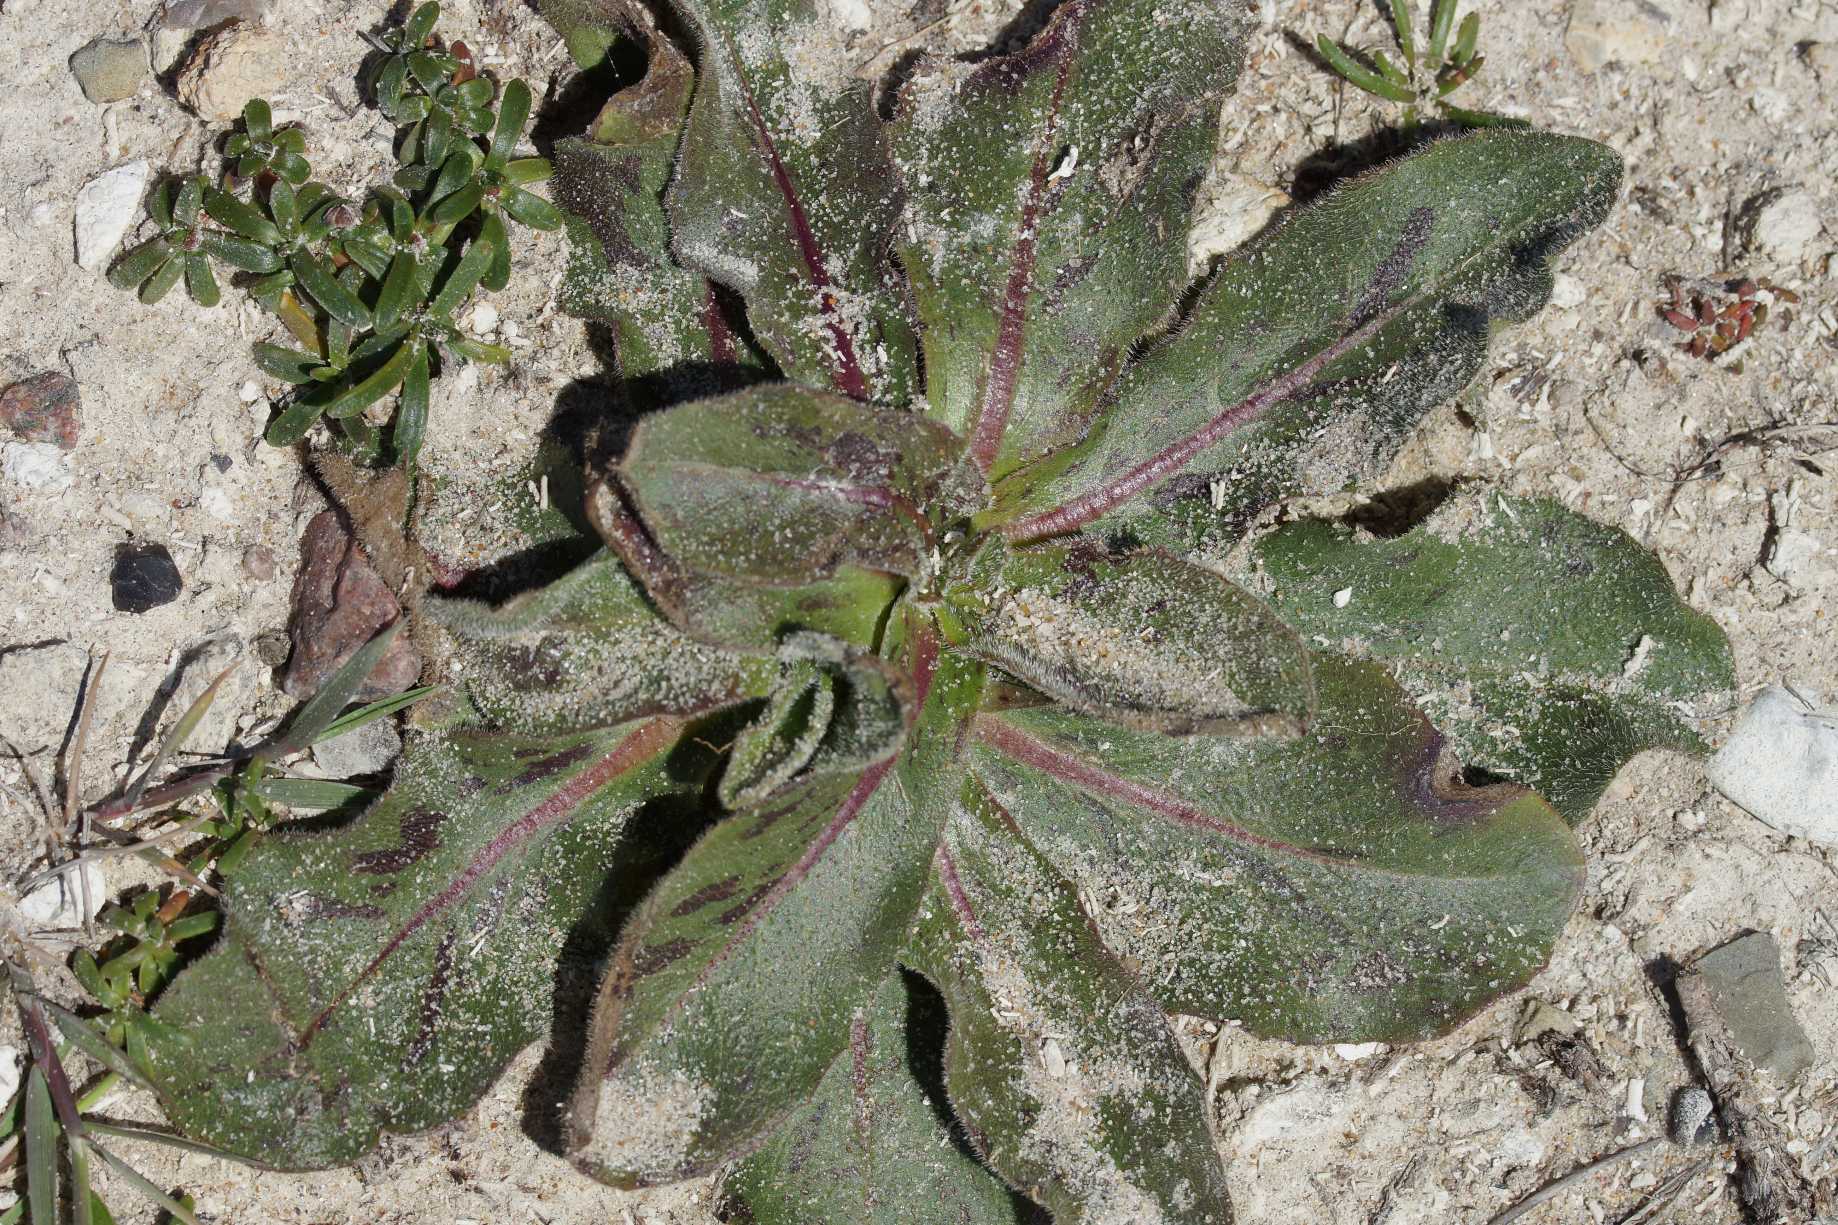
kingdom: Plantae
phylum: Tracheophyta
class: Magnoliopsida
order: Asterales
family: Asteraceae
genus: Trommsdorffia
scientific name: Trommsdorffia maculata
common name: Plettet kongepen
